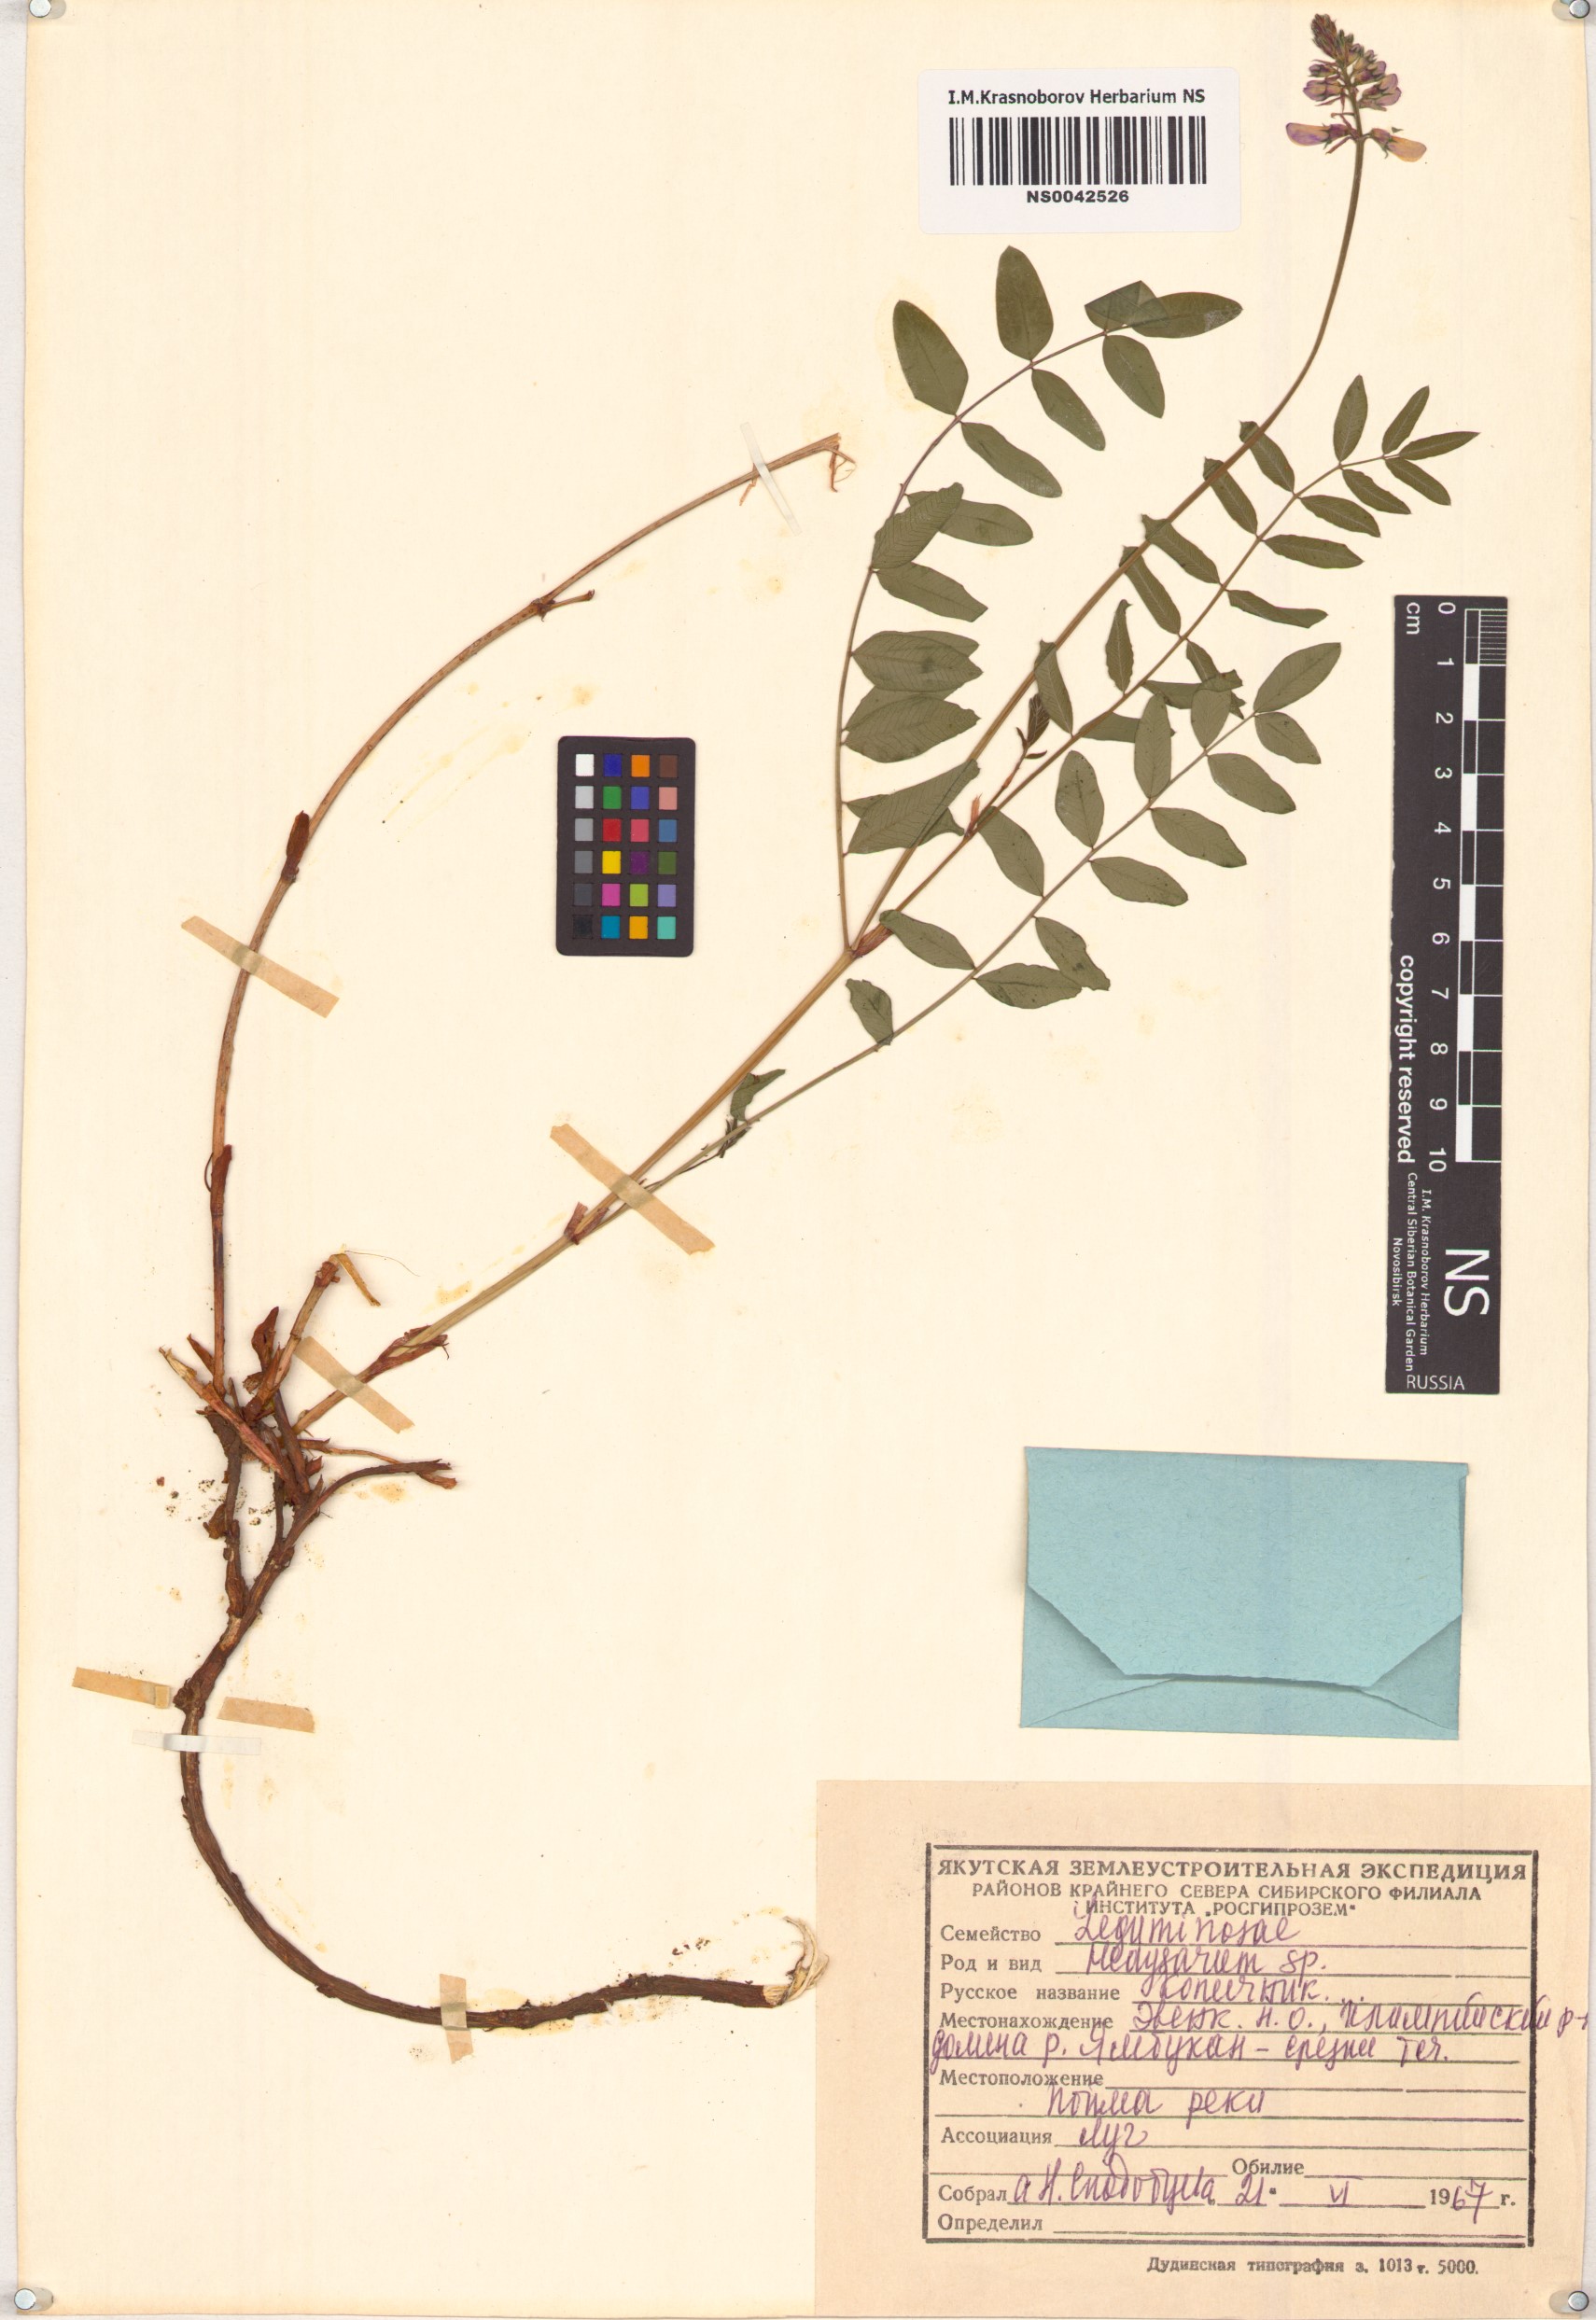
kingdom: Plantae
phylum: Tracheophyta
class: Magnoliopsida
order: Fabales
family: Fabaceae
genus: Hedysarum
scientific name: Hedysarum
